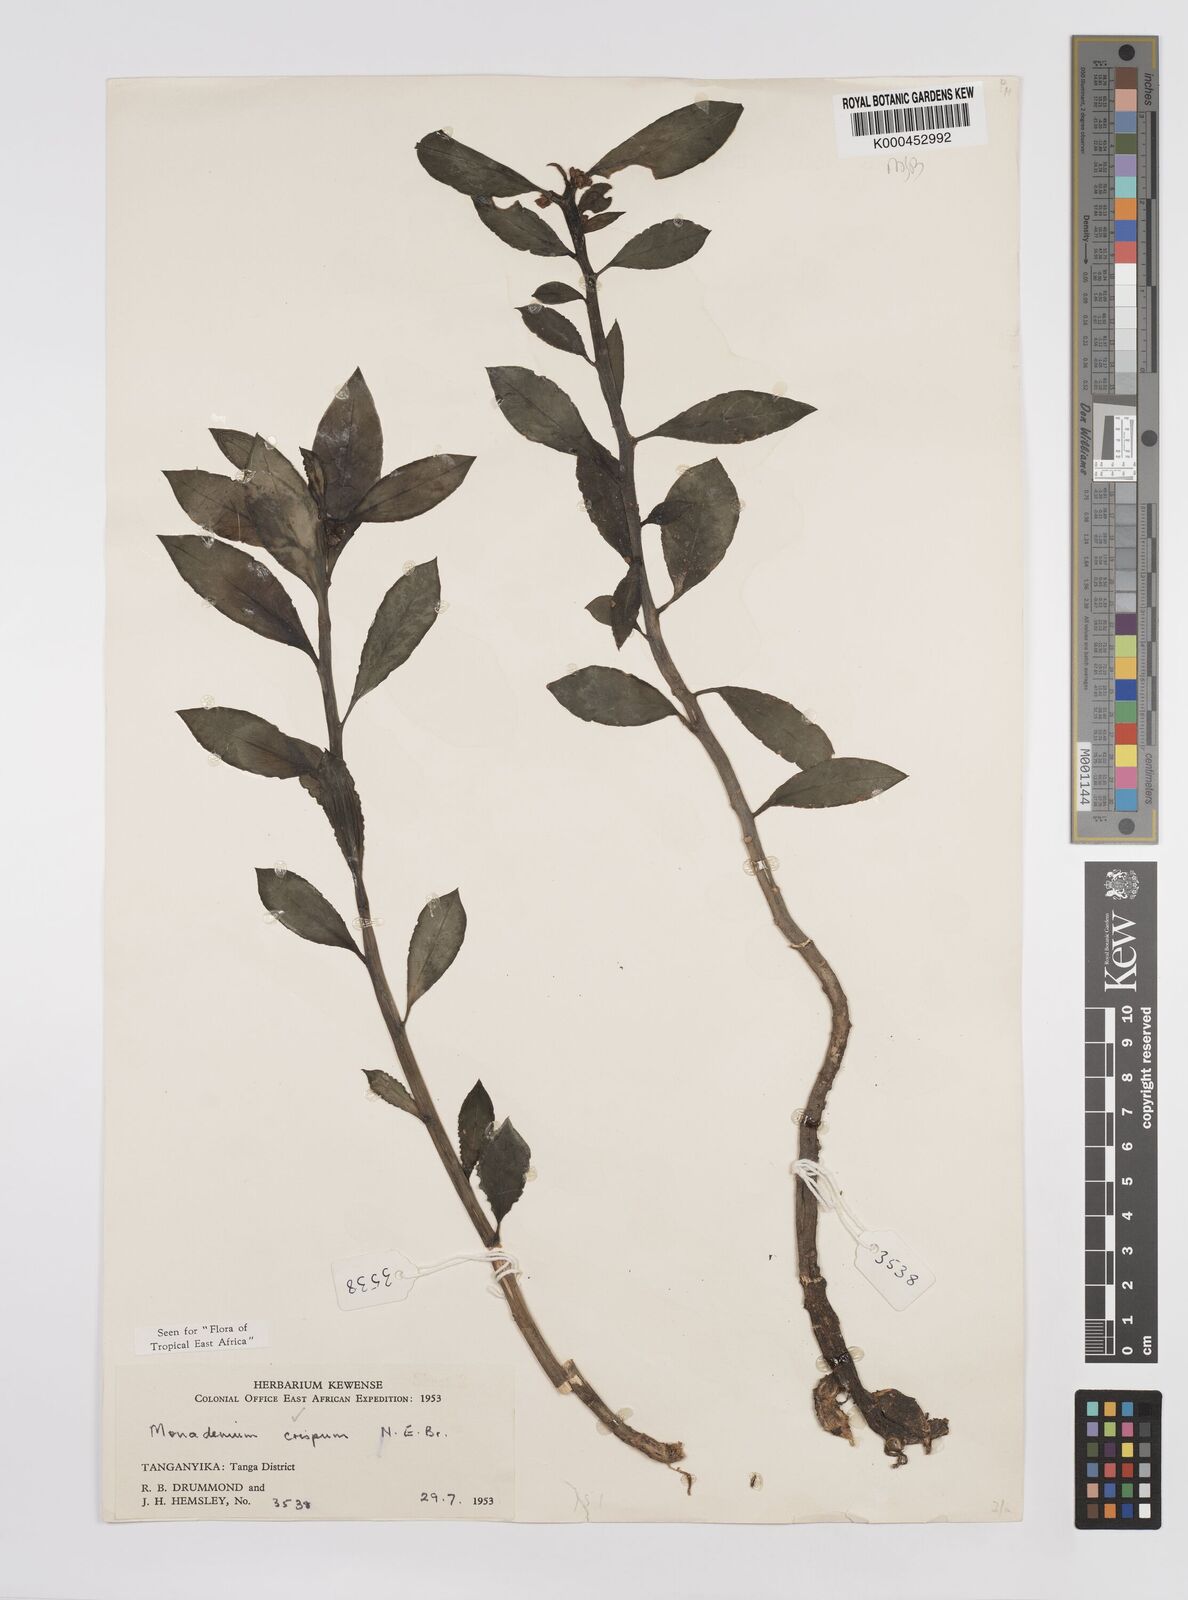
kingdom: Plantae
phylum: Tracheophyta
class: Magnoliopsida
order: Malpighiales
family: Euphorbiaceae
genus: Euphorbia
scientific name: Euphorbia neocrispa
